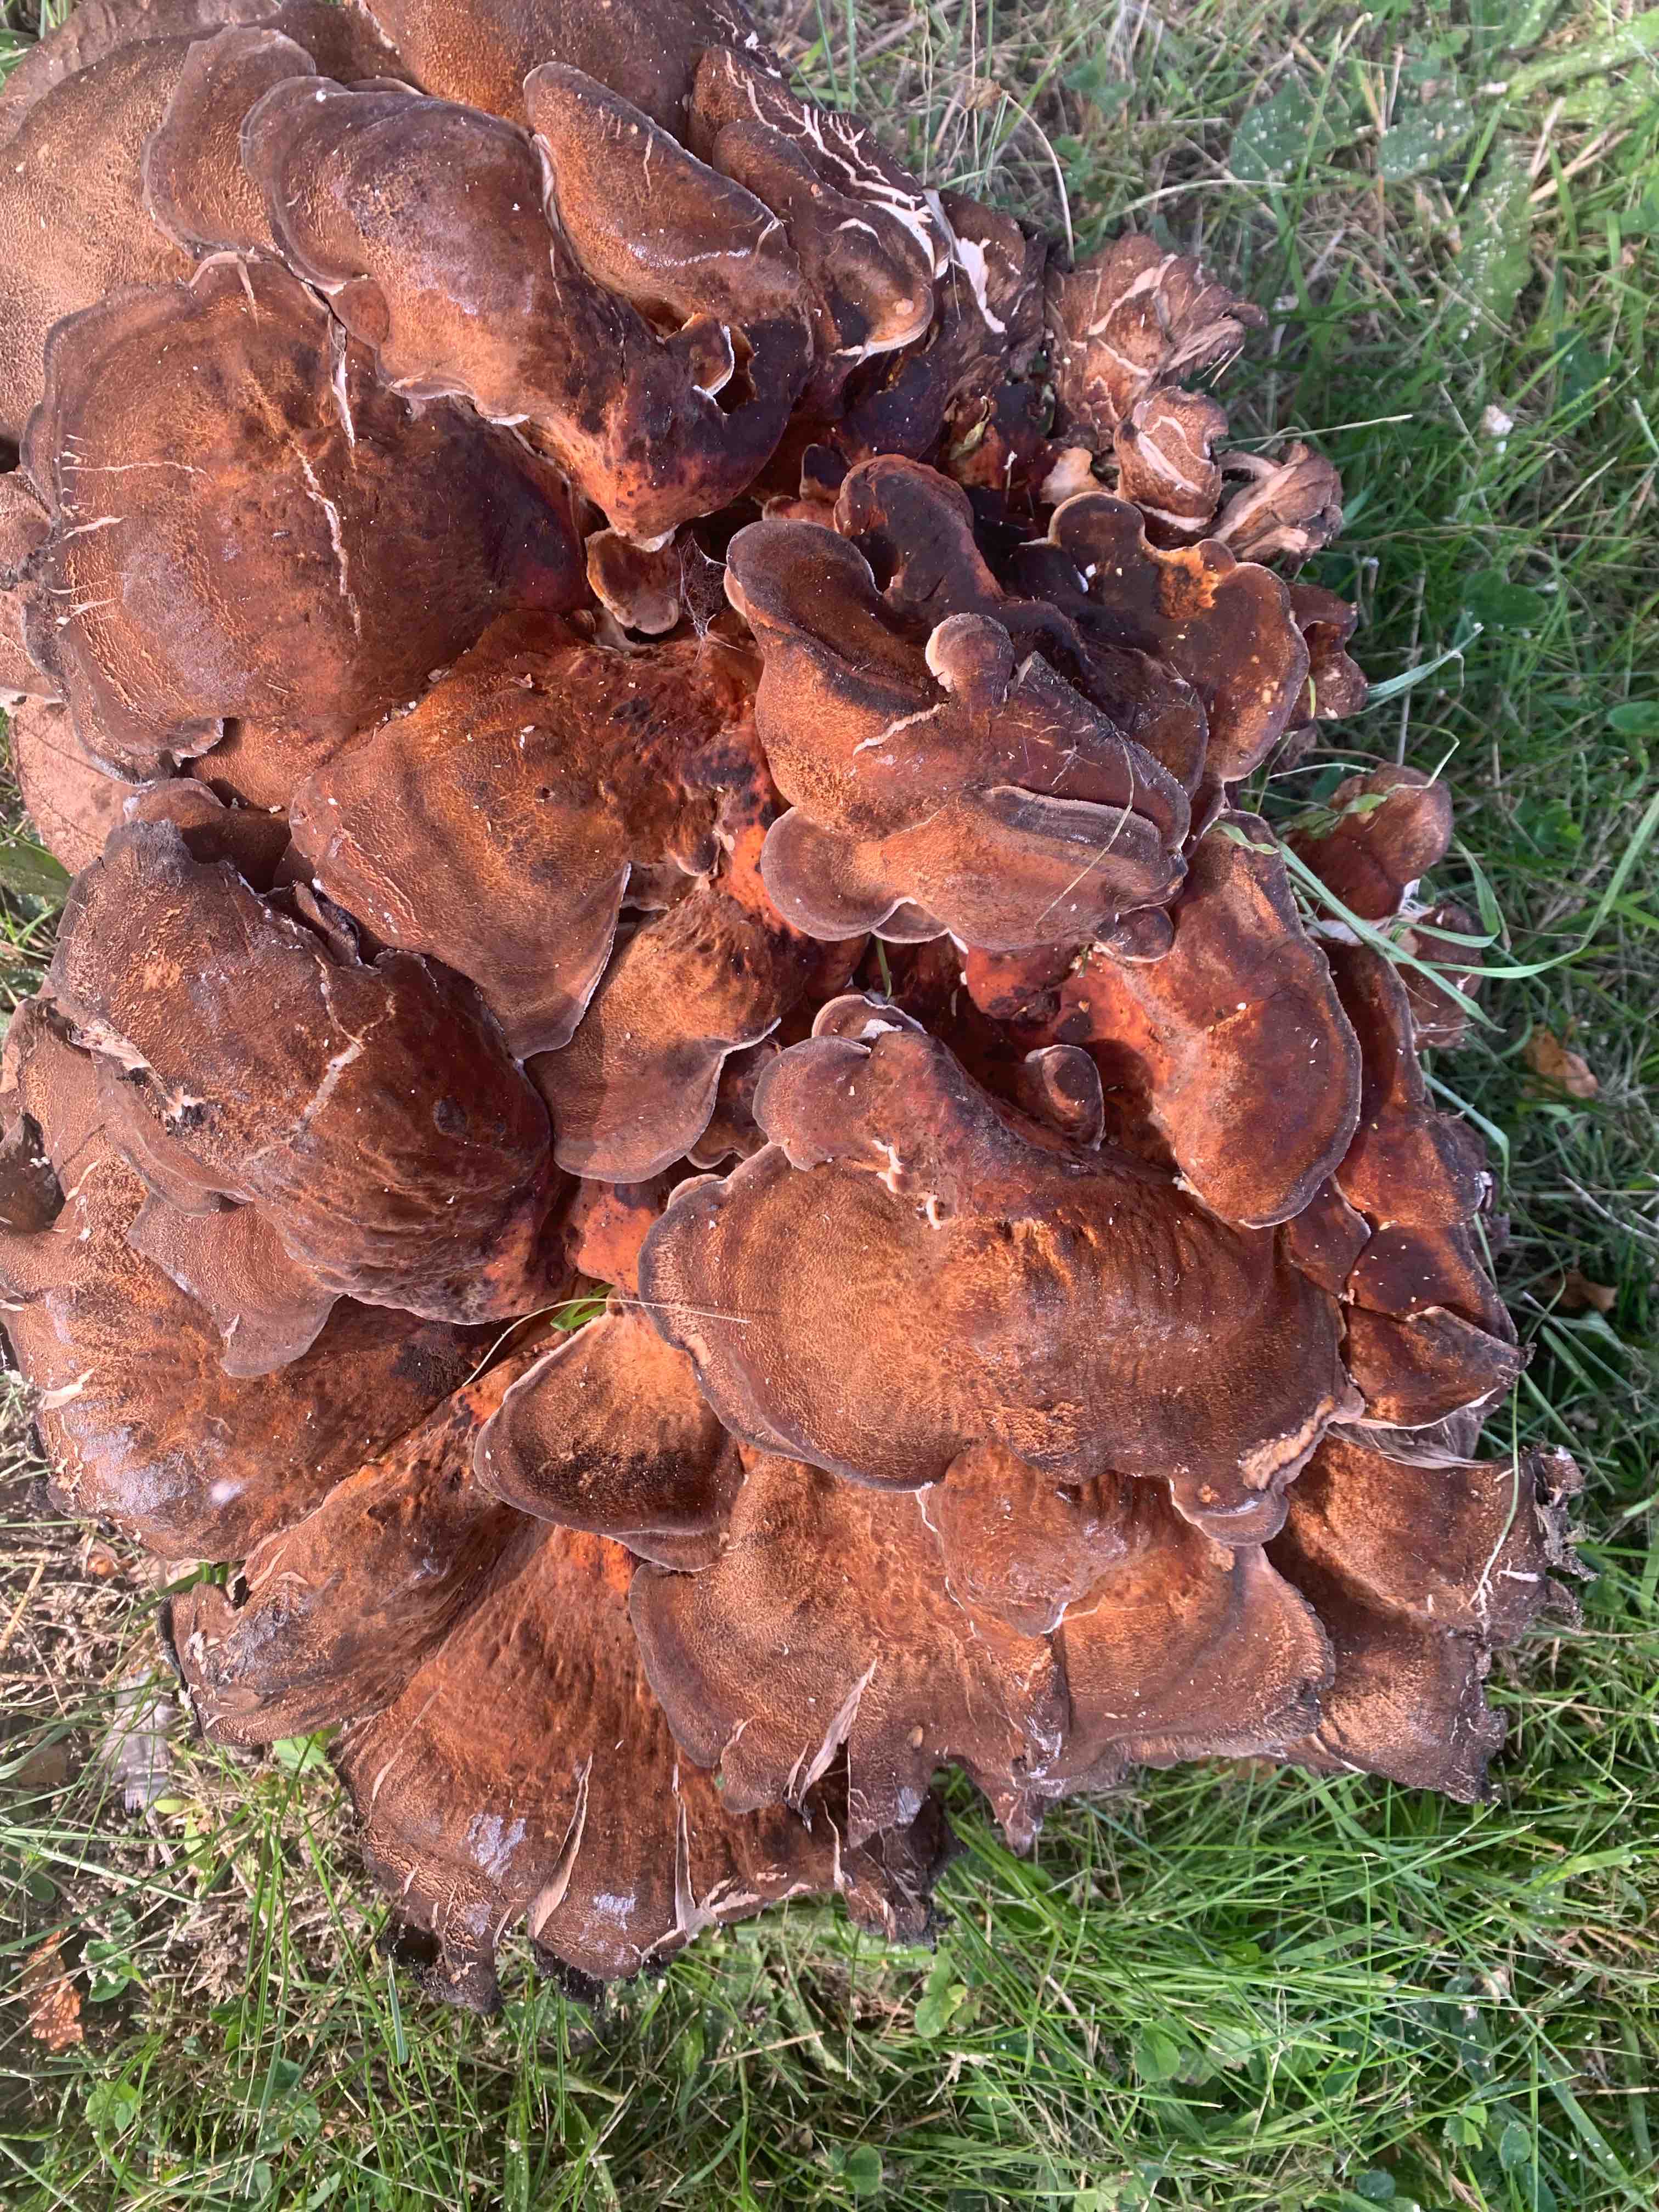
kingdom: Fungi
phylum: Basidiomycota
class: Agaricomycetes
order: Polyporales
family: Meripilaceae
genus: Meripilus
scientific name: Meripilus giganteus
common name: kæmpeporesvamp
